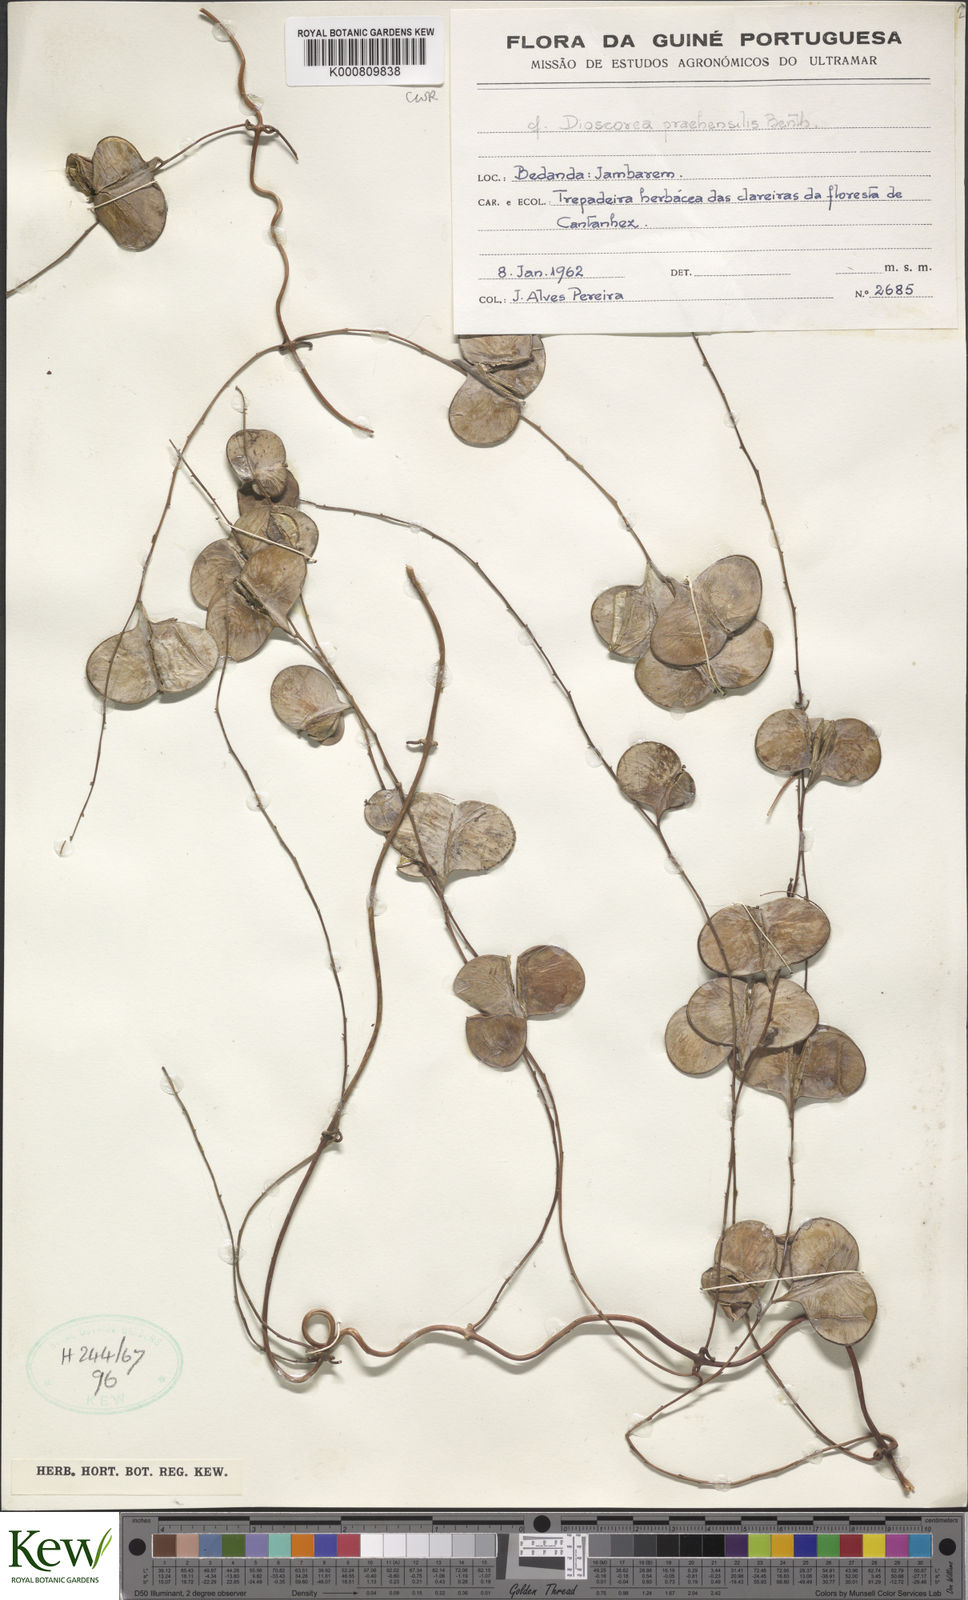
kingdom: Plantae
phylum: Tracheophyta
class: Liliopsida
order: Dioscoreales
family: Dioscoreaceae
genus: Dioscorea
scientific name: Dioscorea praehensilis
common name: Bush yam
